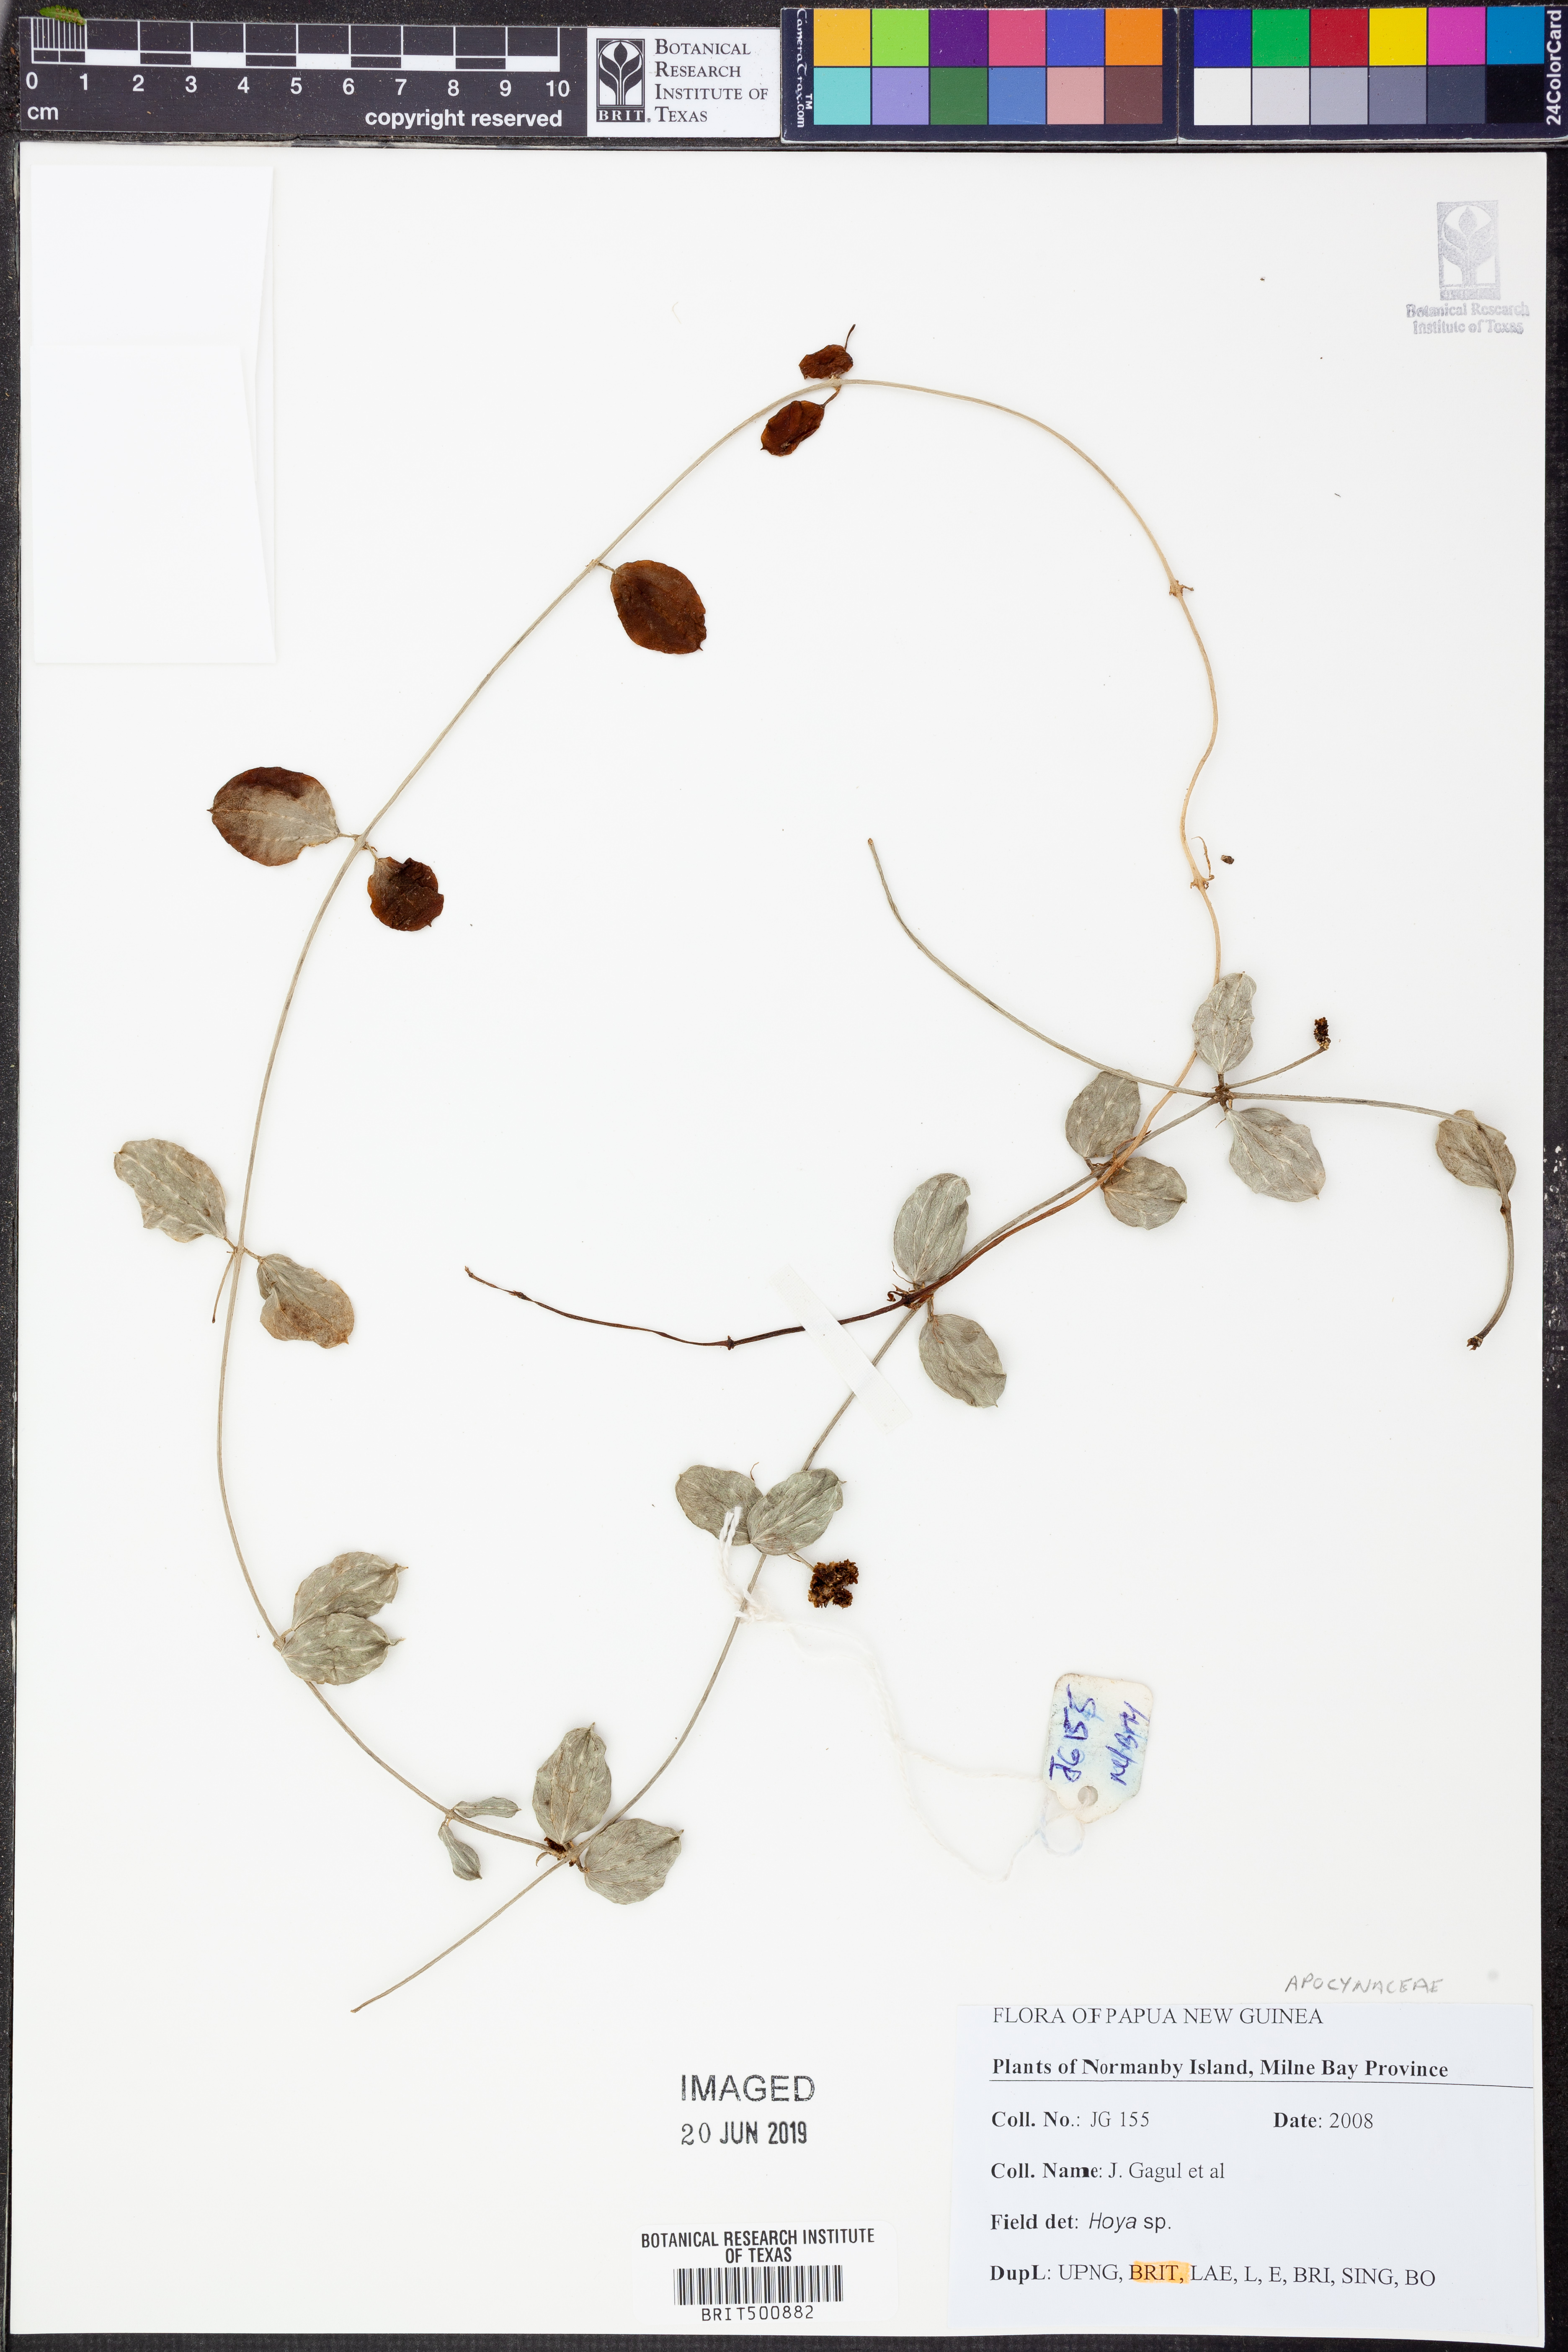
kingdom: Plantae
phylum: Tracheophyta
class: Magnoliopsida
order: Gentianales
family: Apocynaceae
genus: Hoya
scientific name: Hoya
